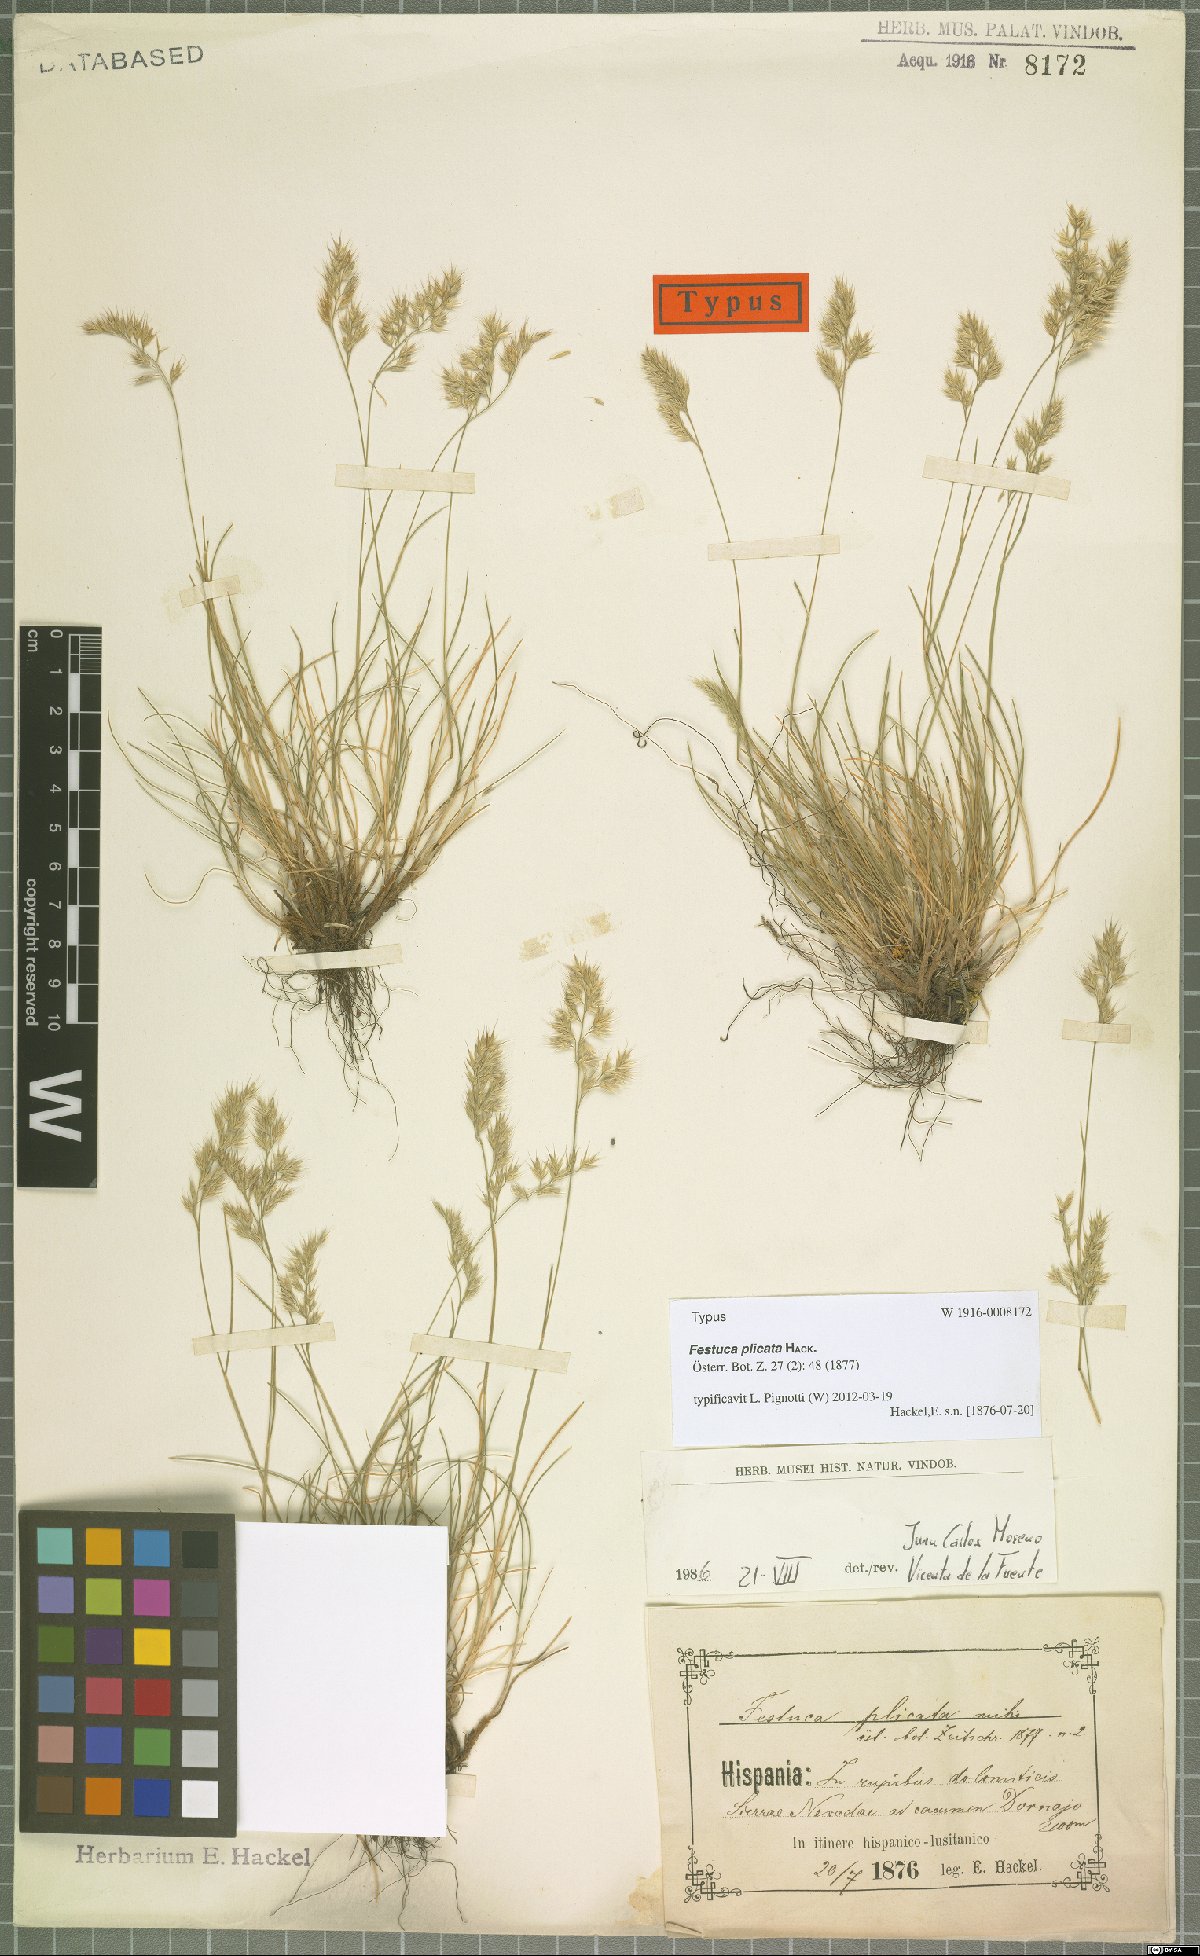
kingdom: Plantae
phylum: Tracheophyta
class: Liliopsida
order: Poales
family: Poaceae
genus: Festuca
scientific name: Festuca plicata
